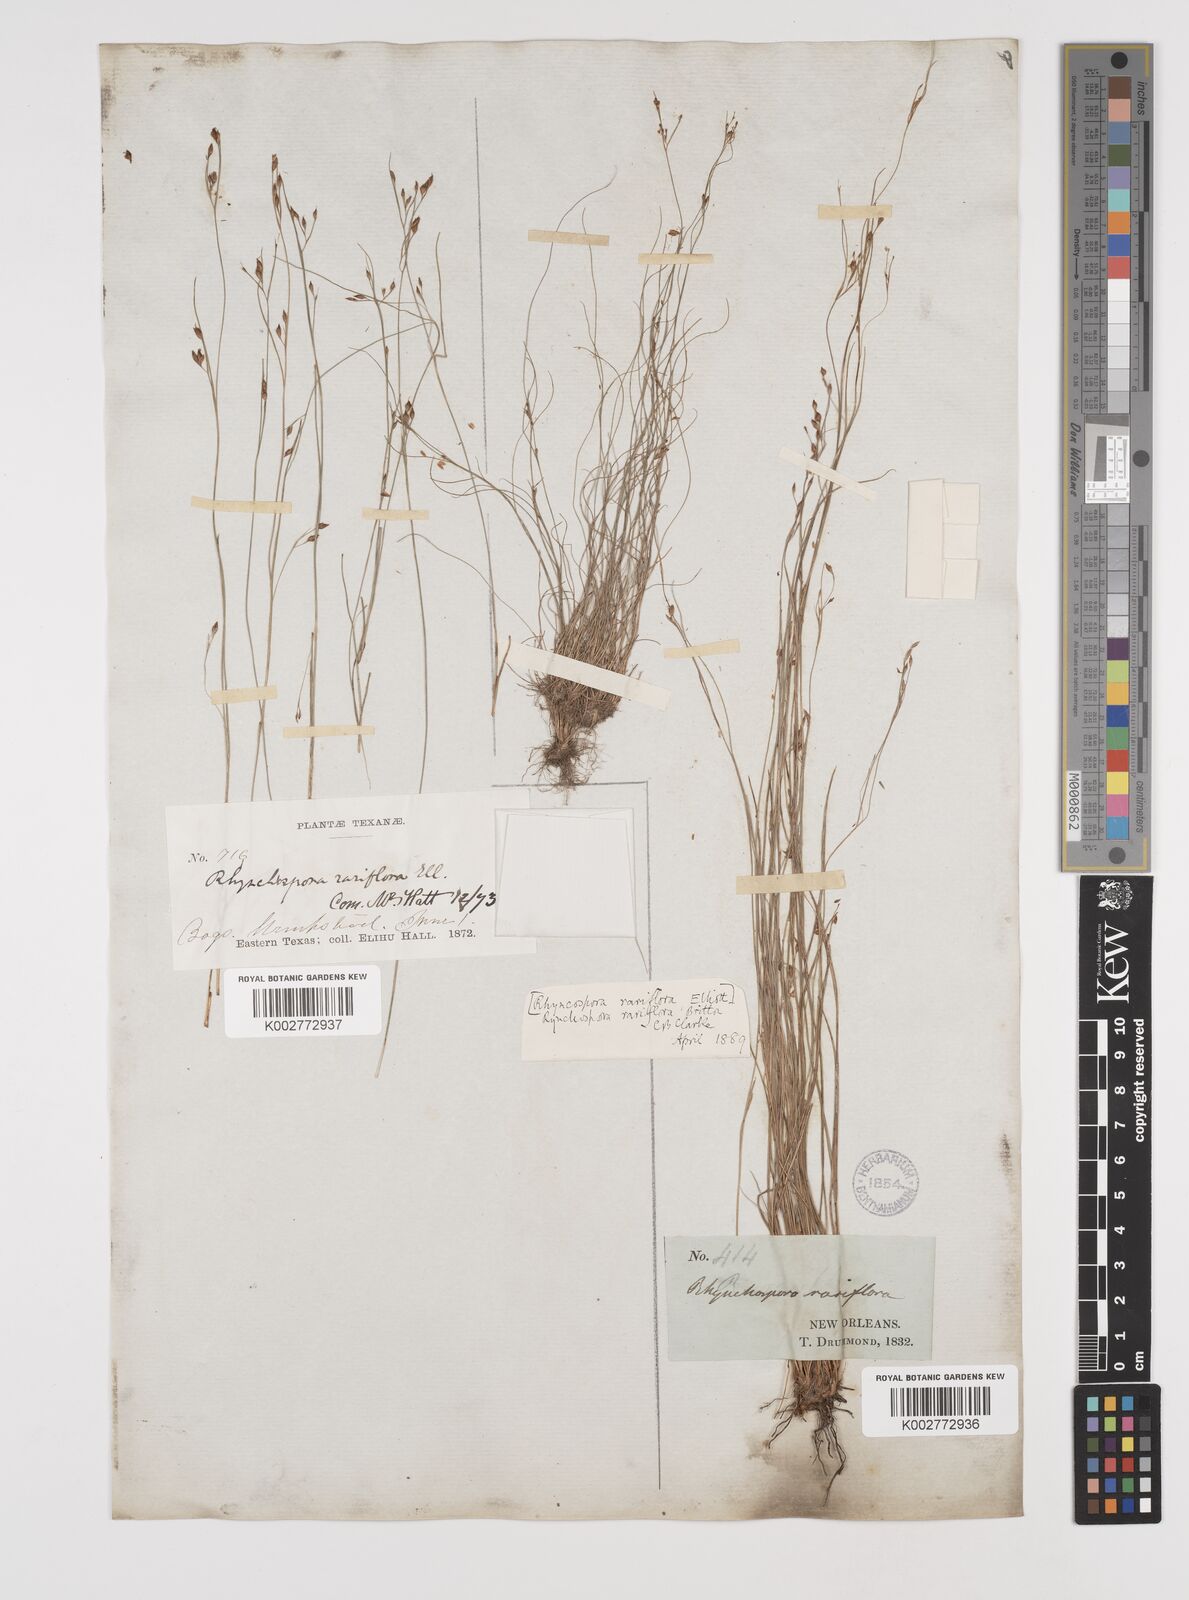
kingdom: Plantae
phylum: Tracheophyta
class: Liliopsida
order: Poales
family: Cyperaceae
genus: Rhynchospora
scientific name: Rhynchospora rariflora
